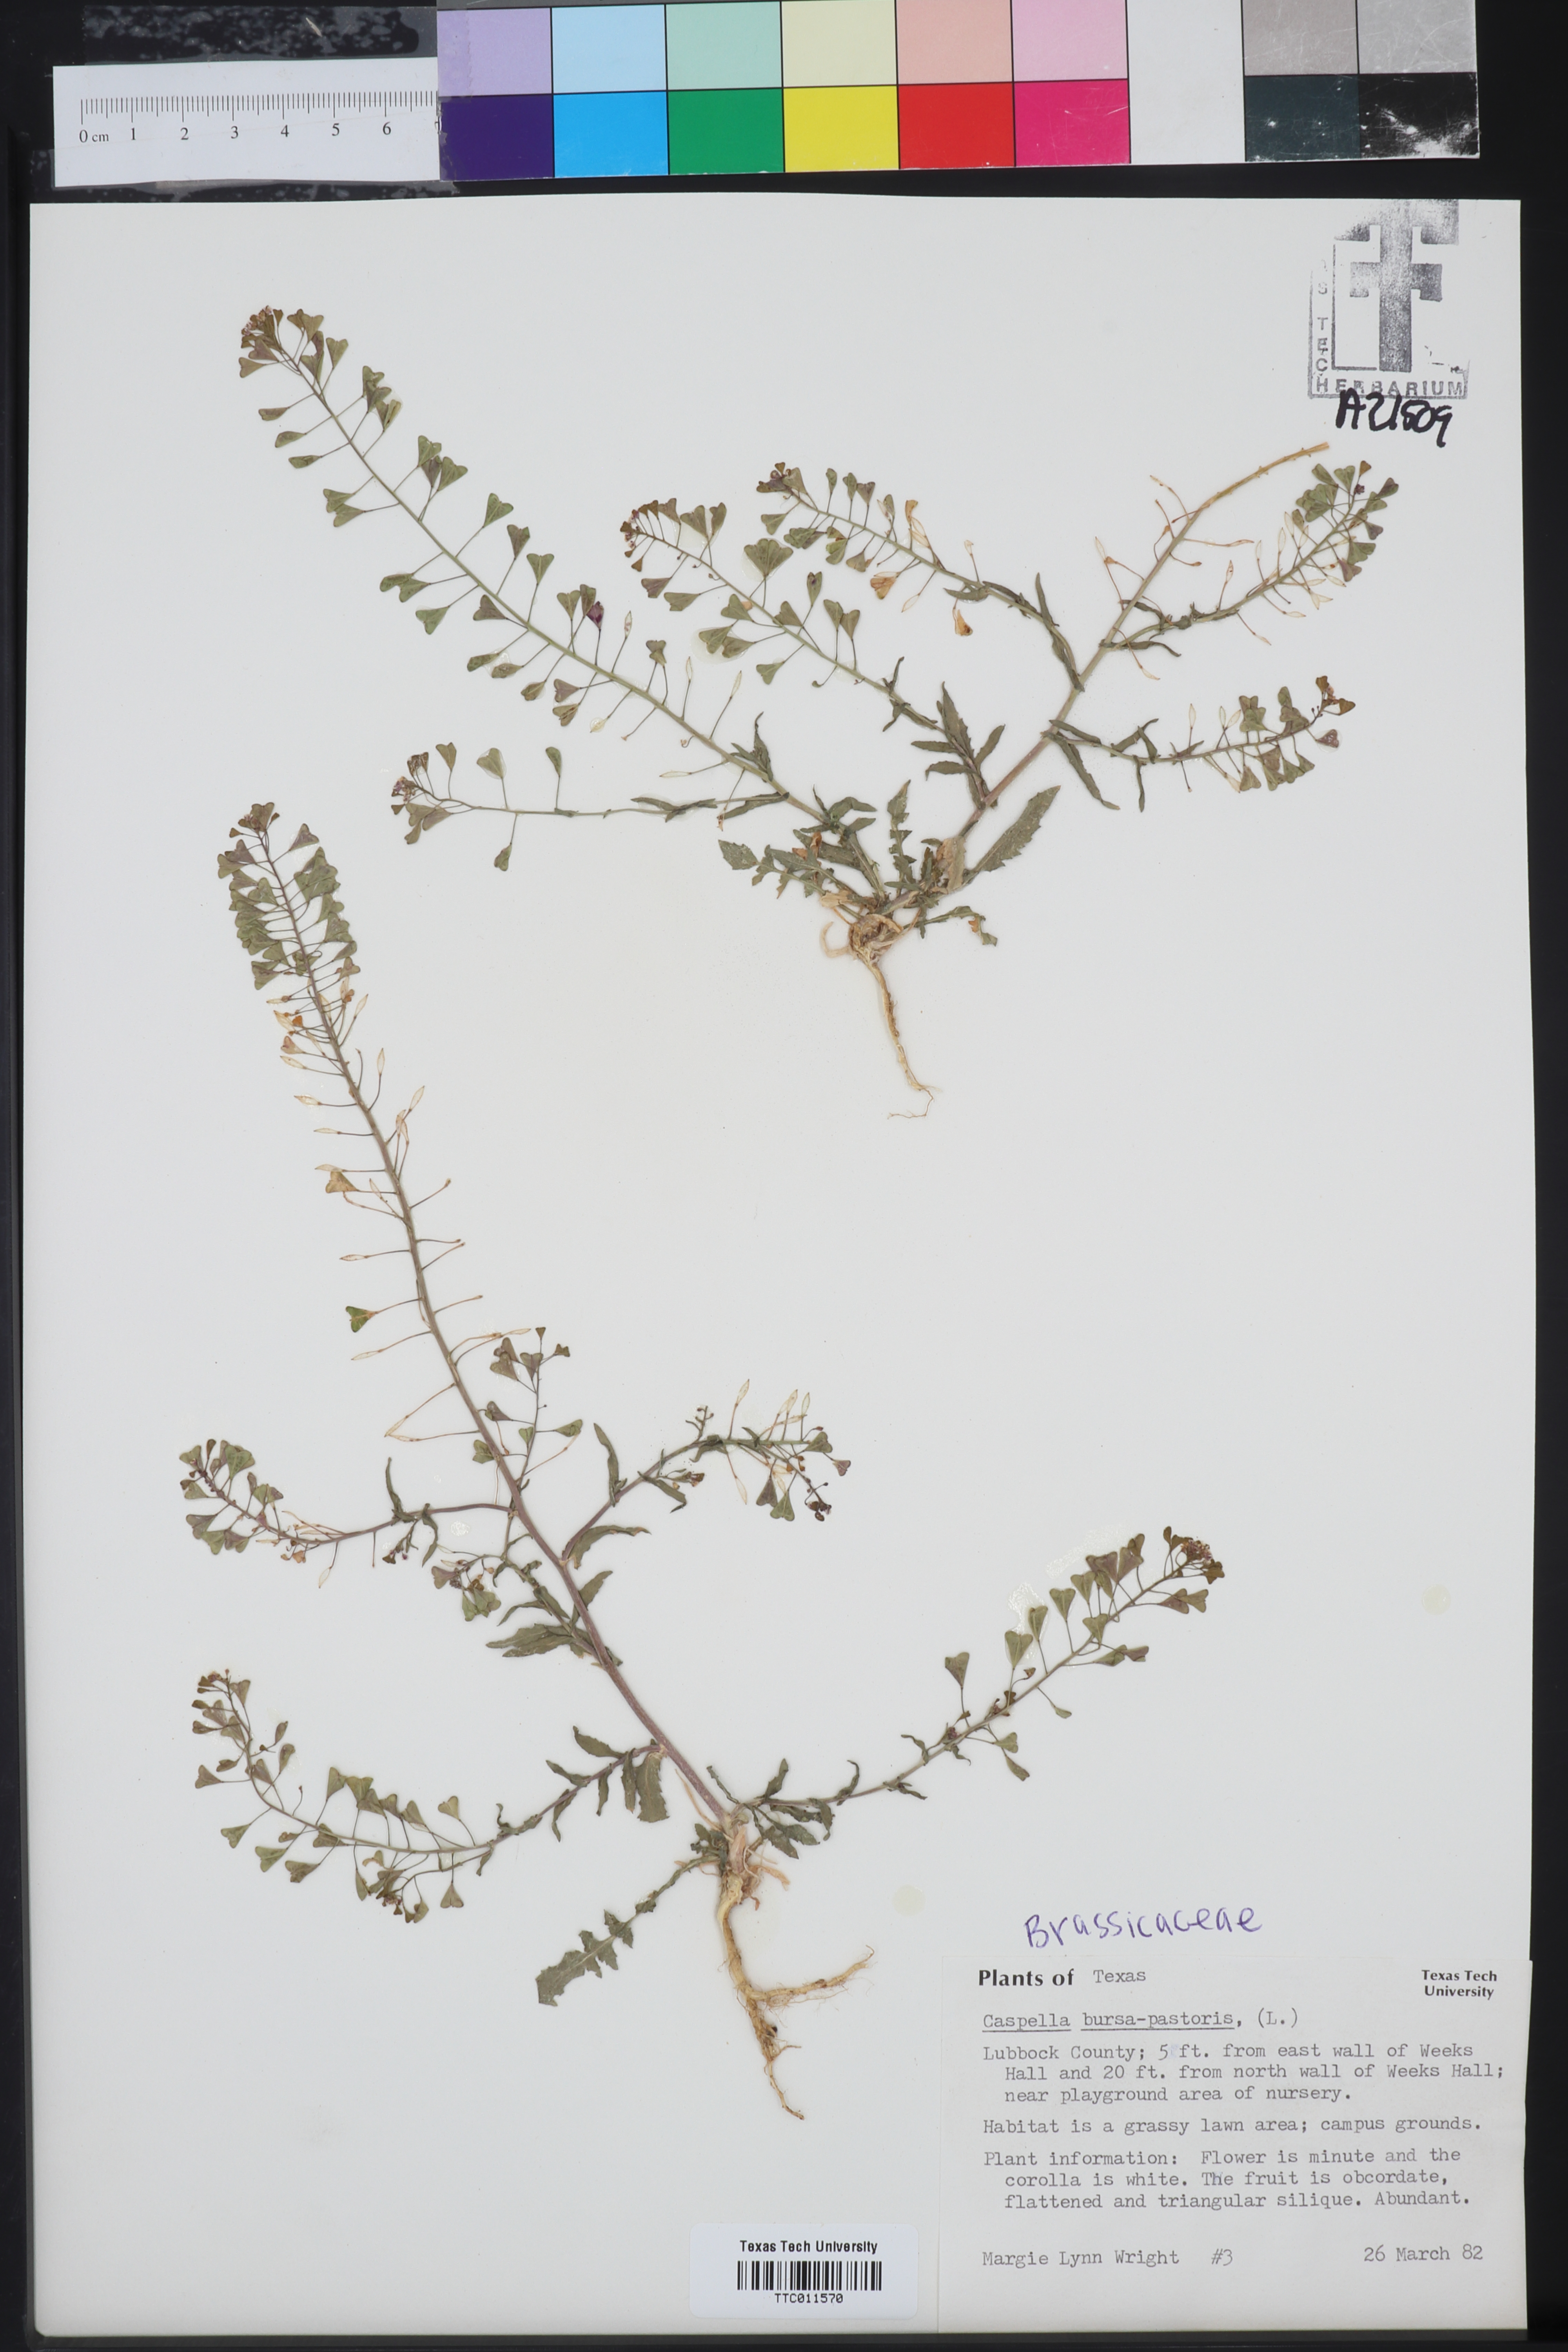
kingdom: Plantae
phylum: Tracheophyta
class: Magnoliopsida
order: Brassicales
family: Brassicaceae
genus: Capsella
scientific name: Capsella bursa-pastoris
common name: Shepherd's purse
